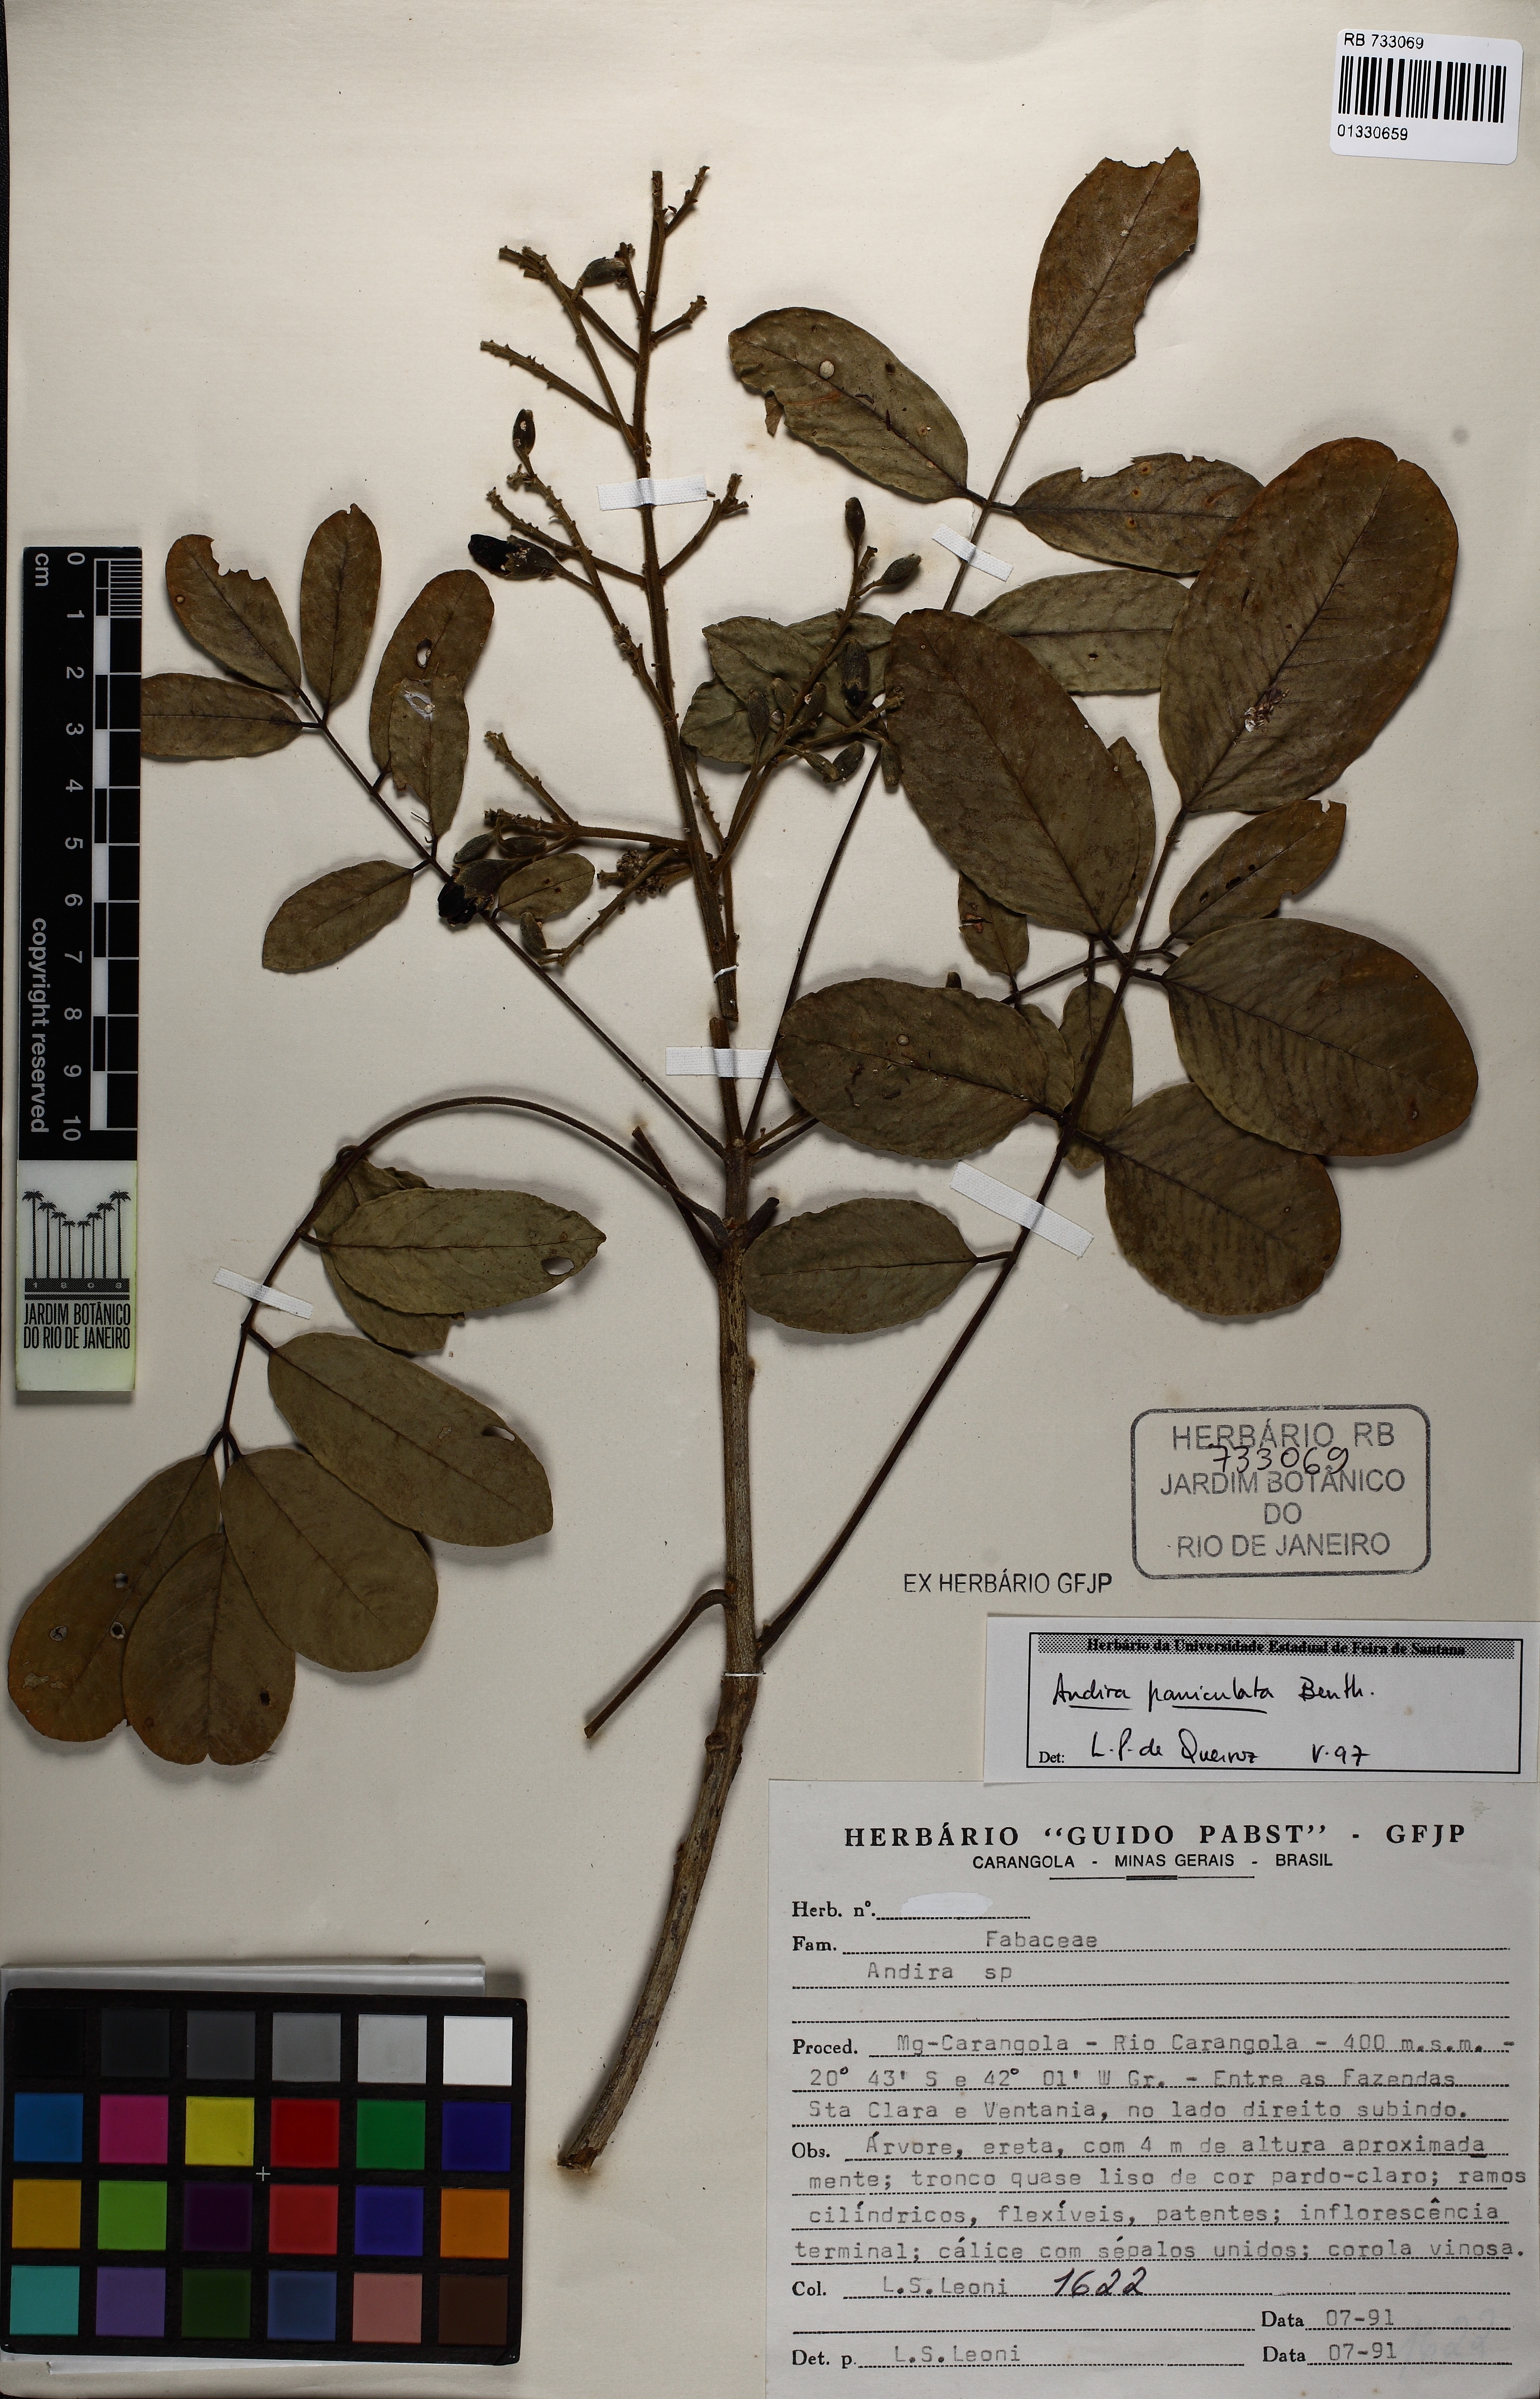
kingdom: Plantae
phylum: Tracheophyta
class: Magnoliopsida
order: Fabales
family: Fabaceae
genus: Andira
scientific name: Andira vermifuga
